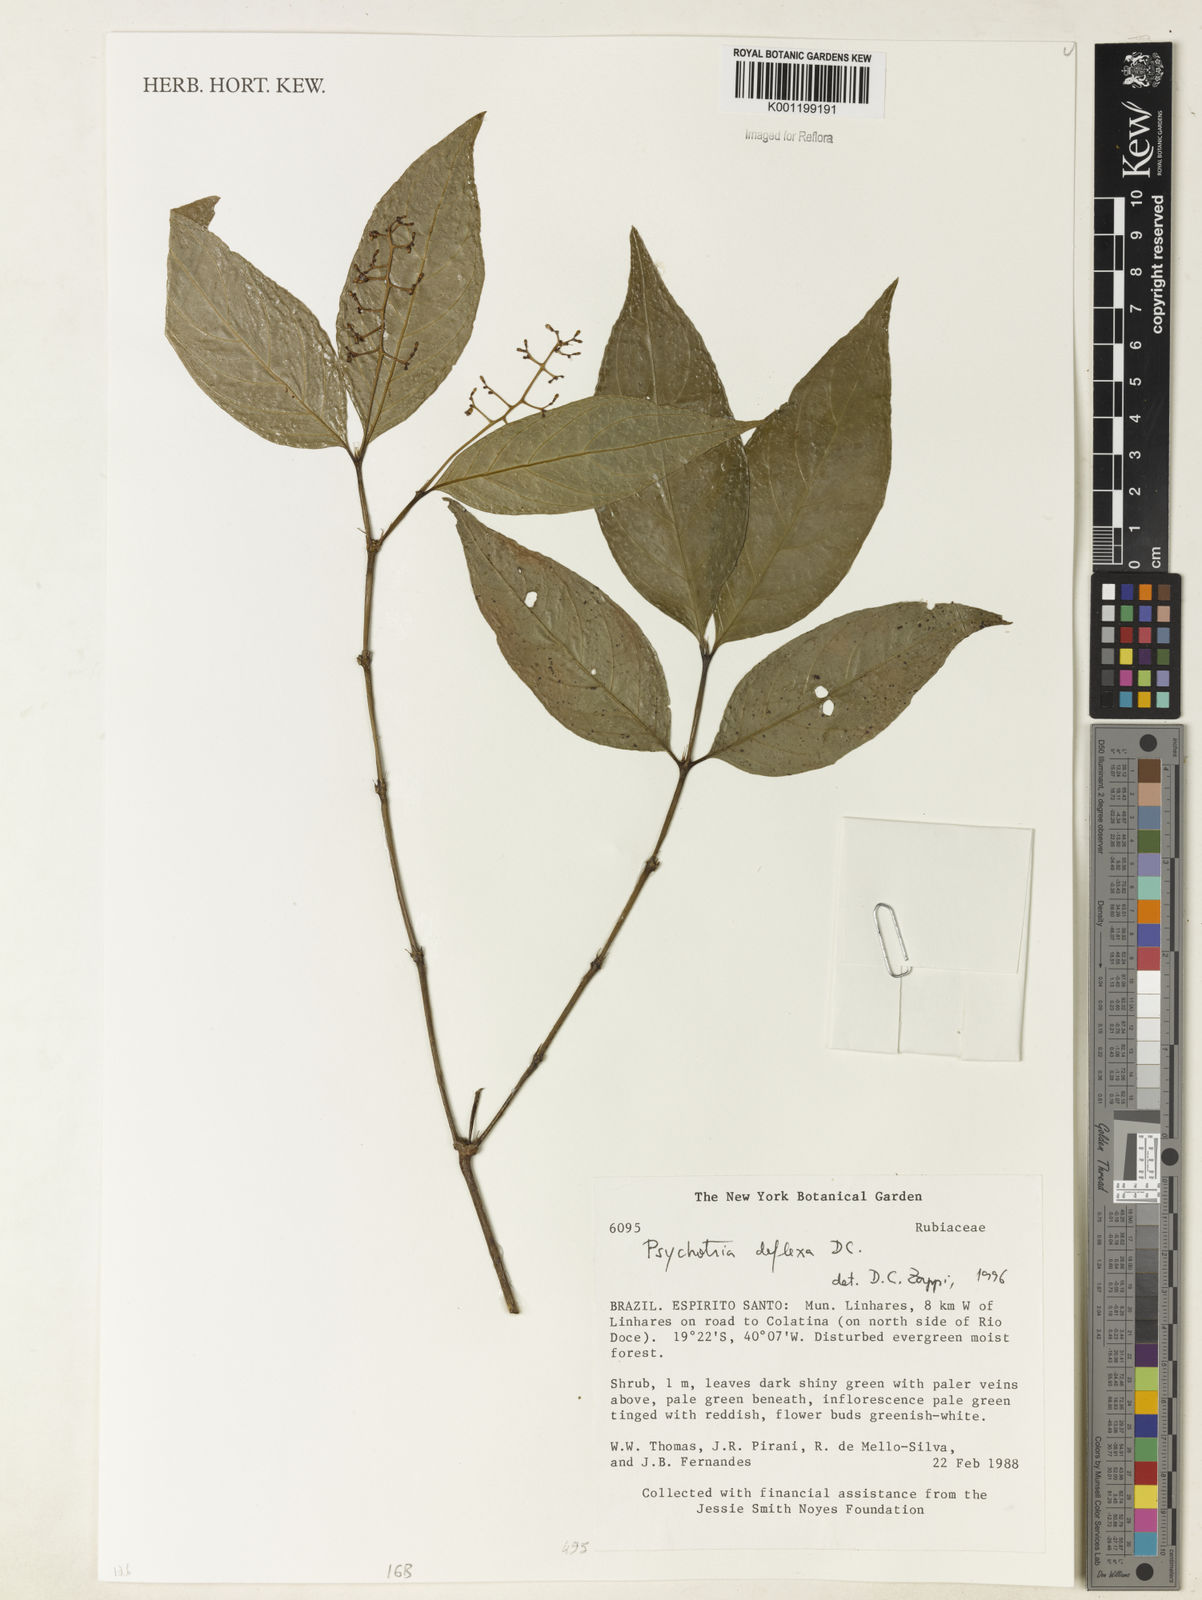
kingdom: Plantae
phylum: Tracheophyta
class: Magnoliopsida
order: Gentianales
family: Rubiaceae
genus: Palicourea
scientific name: Palicourea deflexa
